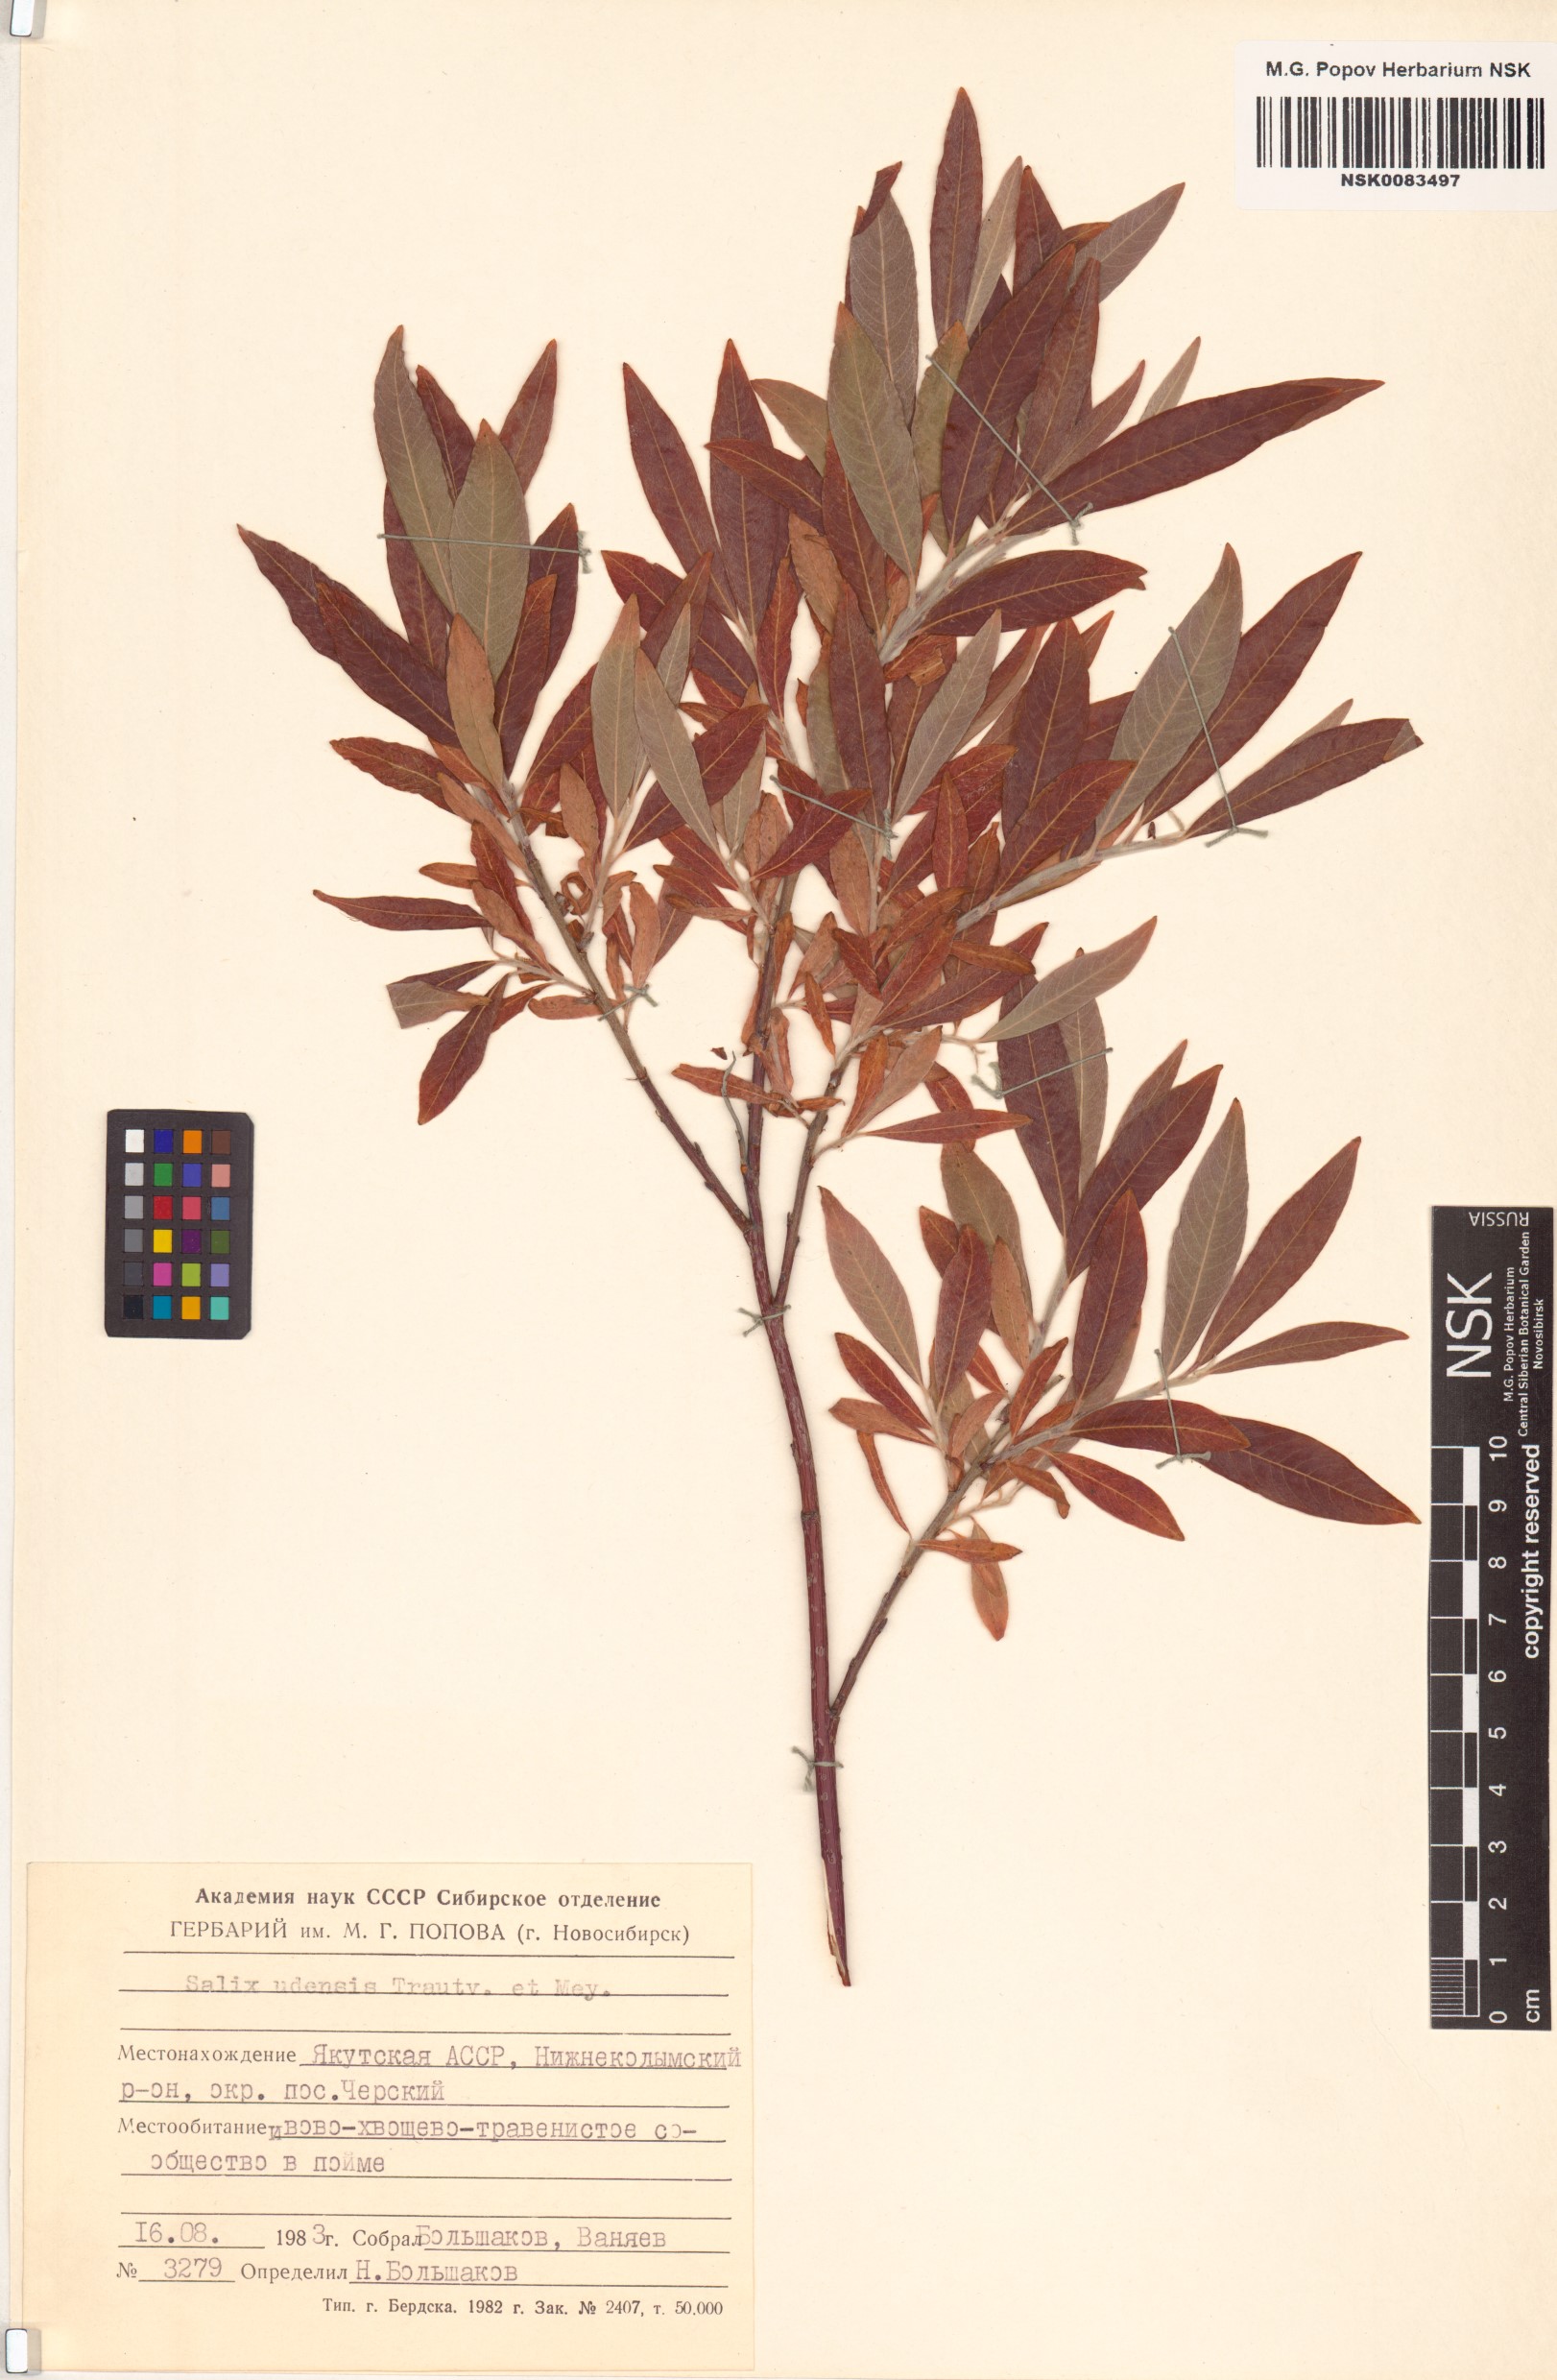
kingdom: Plantae
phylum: Tracheophyta
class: Magnoliopsida
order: Malpighiales
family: Salicaceae
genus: Salix
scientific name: Salix udensis
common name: Sachalin willow
